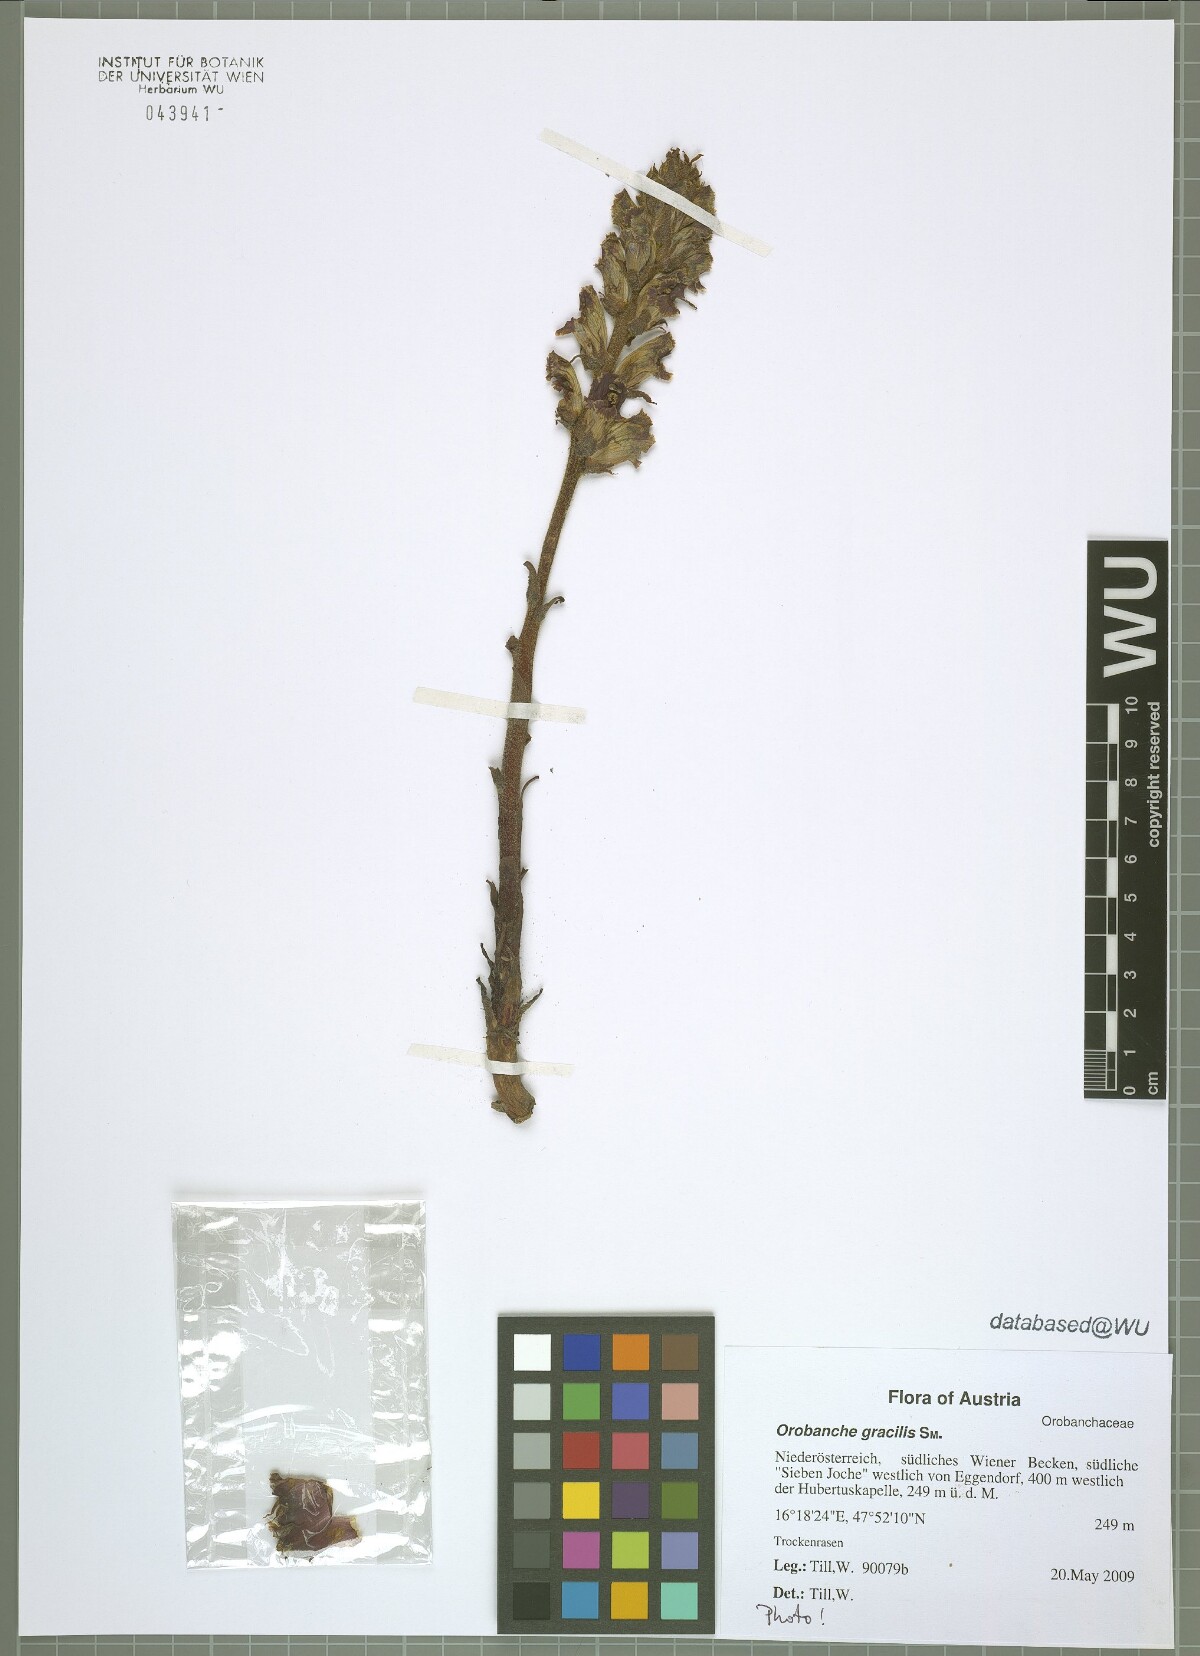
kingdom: Plantae
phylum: Tracheophyta
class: Magnoliopsida
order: Lamiales
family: Orobanchaceae
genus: Orobanche
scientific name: Orobanche gracilis
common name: Slender broomrape
